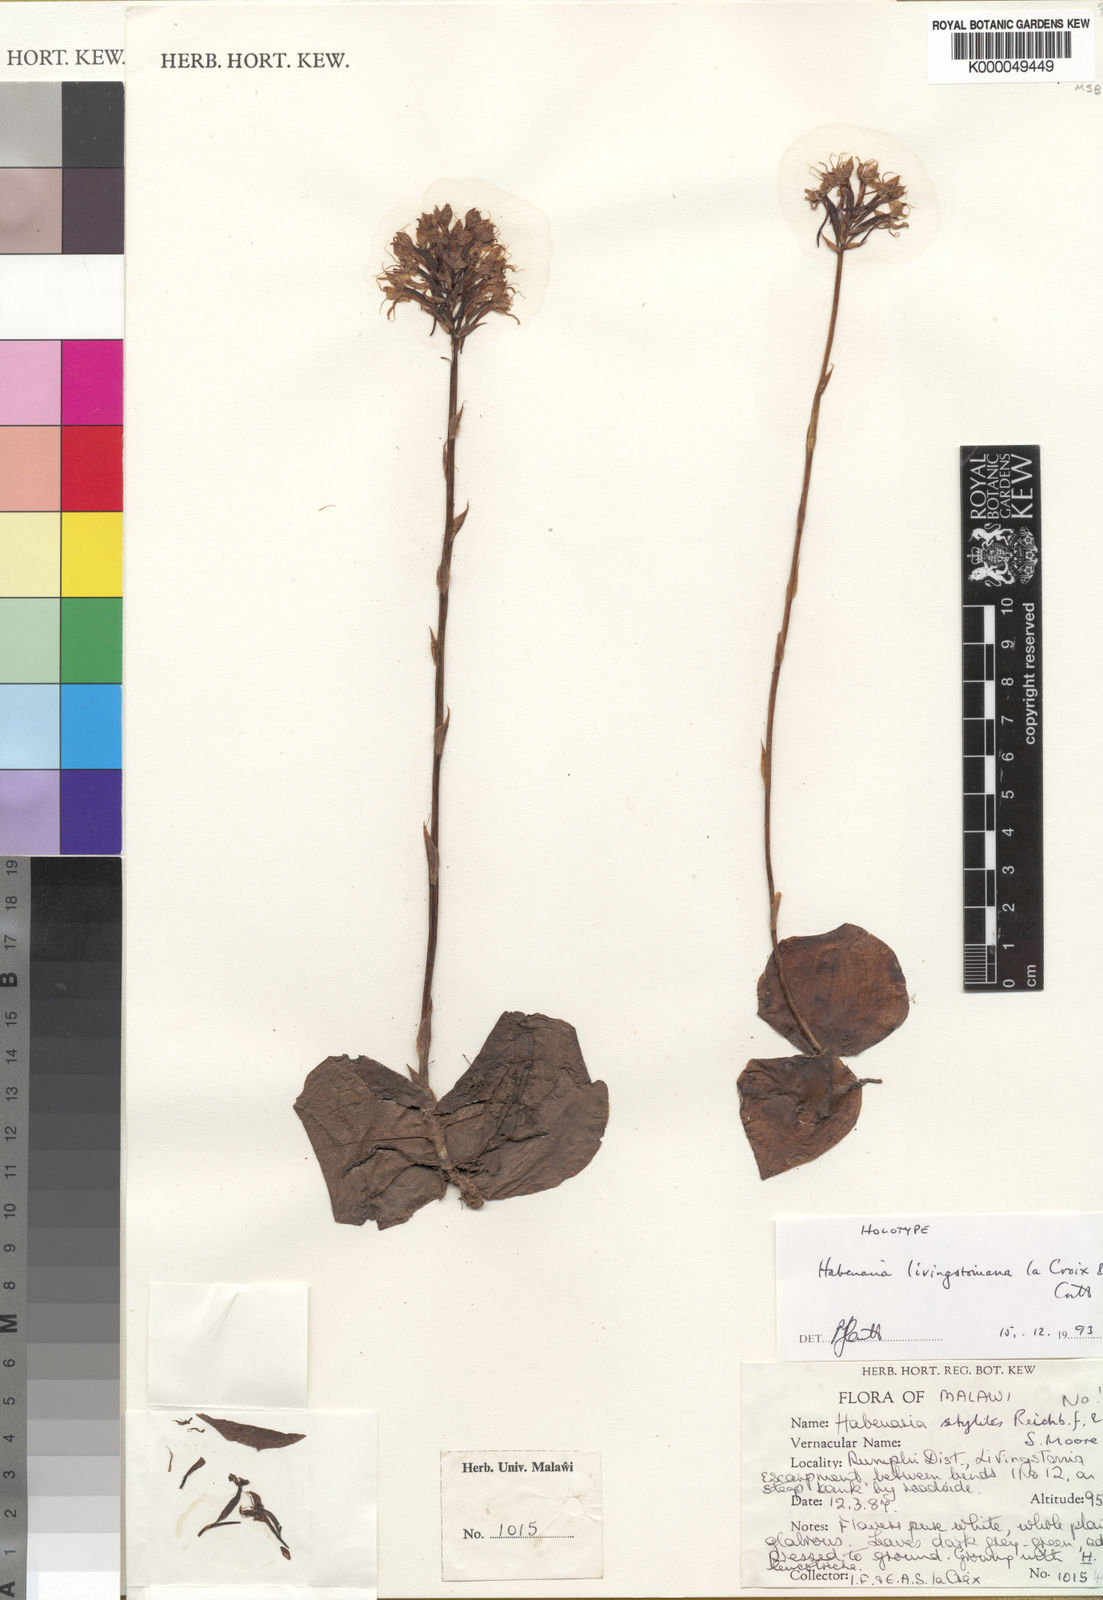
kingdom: Plantae
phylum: Tracheophyta
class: Liliopsida
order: Asparagales
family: Orchidaceae
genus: Habenaria
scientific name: Habenaria
